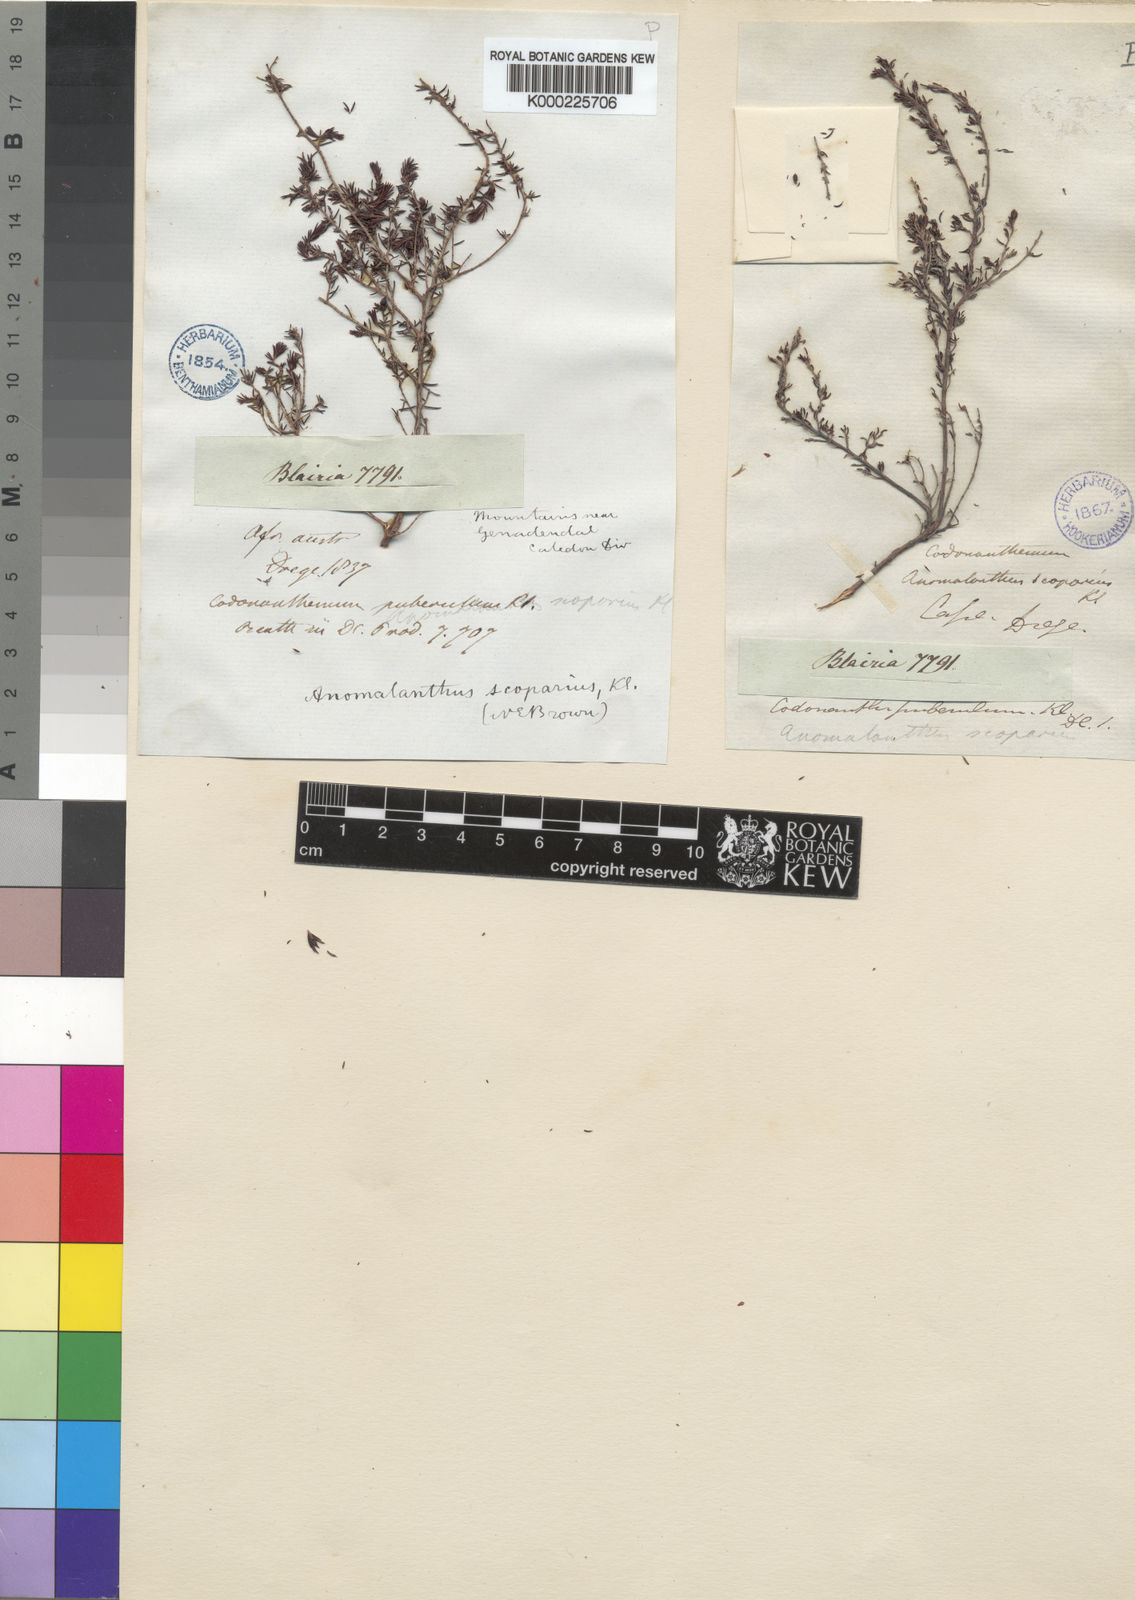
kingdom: Plantae
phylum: Tracheophyta
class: Magnoliopsida
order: Ericales
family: Ericaceae
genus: Erica
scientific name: Erica anguliger
